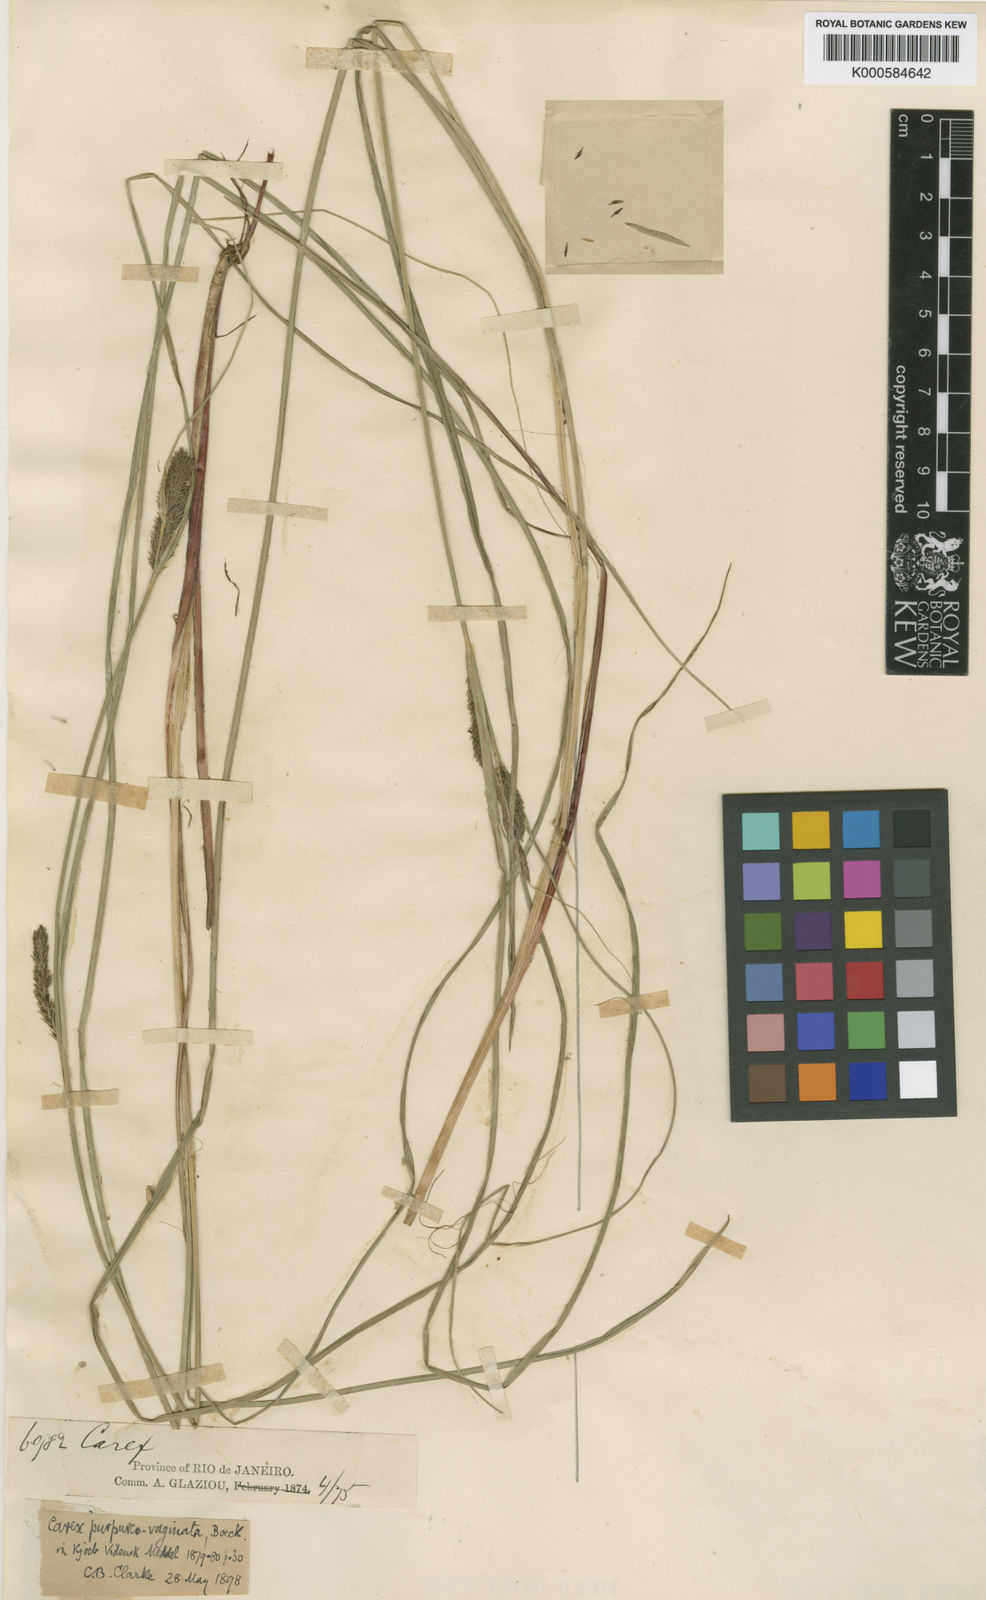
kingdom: Plantae
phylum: Tracheophyta
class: Liliopsida
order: Poales
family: Cyperaceae
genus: Carex
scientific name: Carex purpureovaginata
